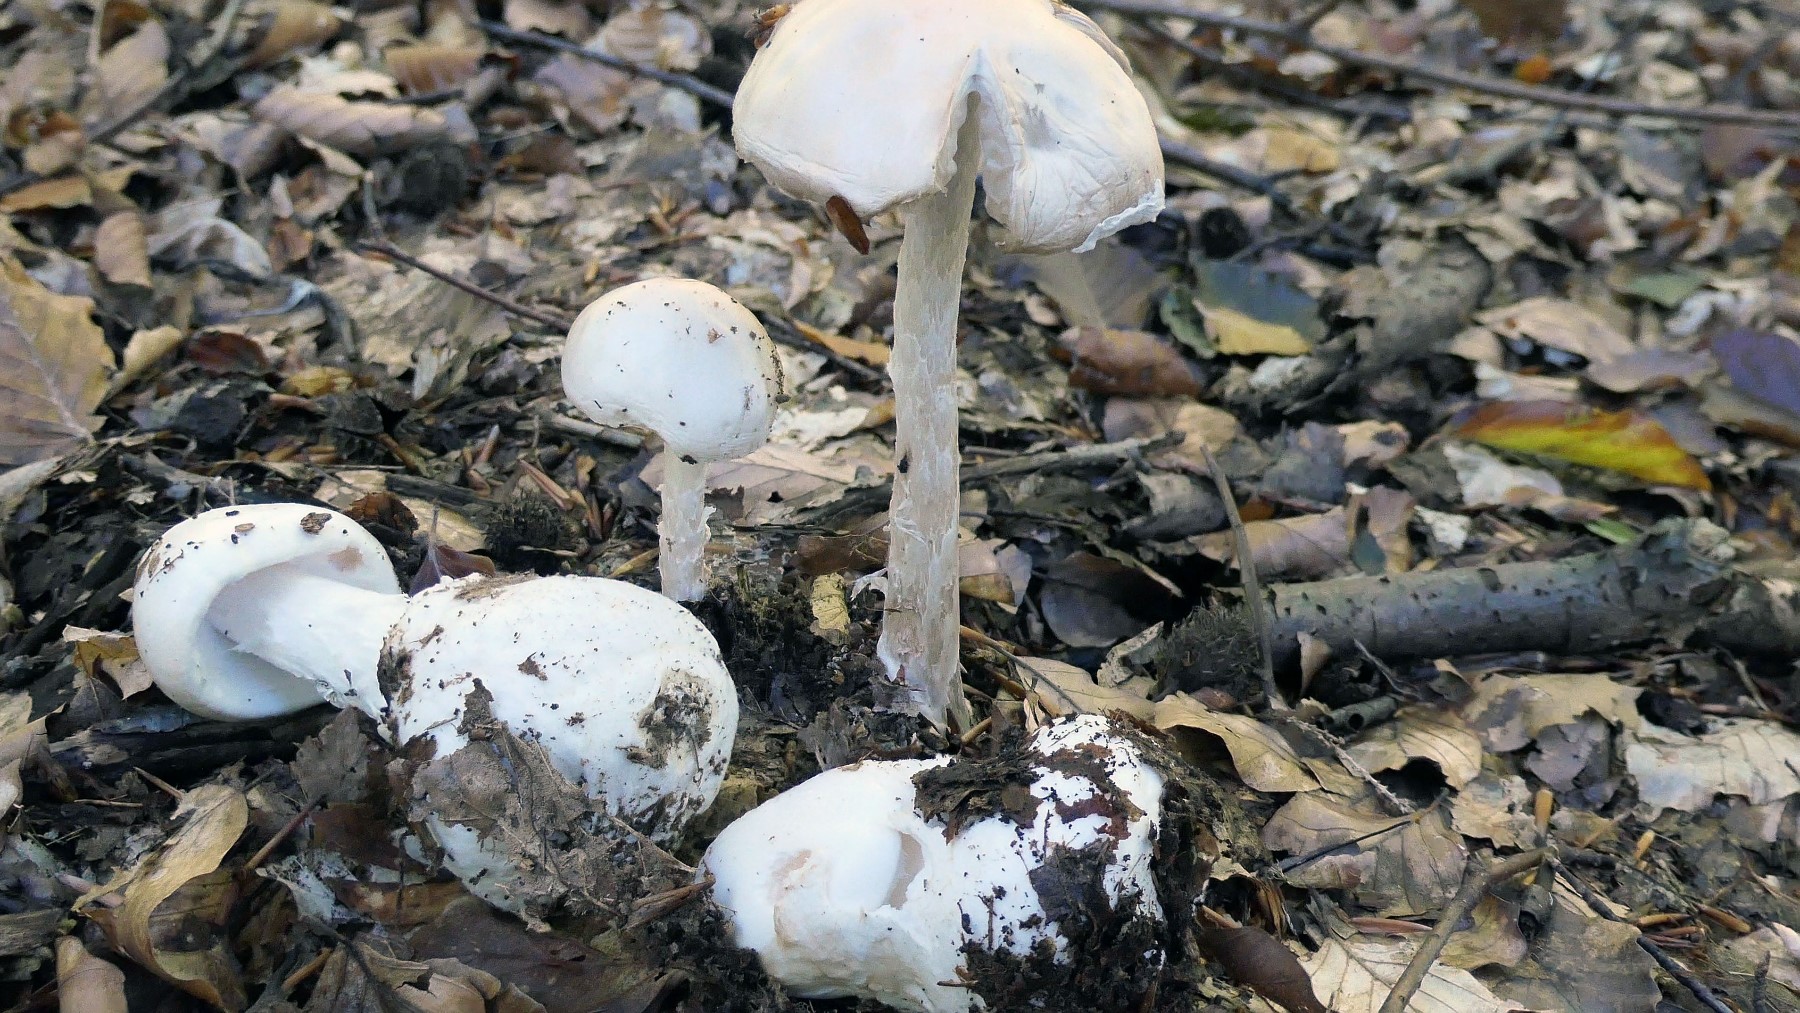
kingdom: Fungi
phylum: Basidiomycota
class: Agaricomycetes
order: Agaricales
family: Amanitaceae
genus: Amanita
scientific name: Amanita virosa
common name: snehvid fluesvamp
